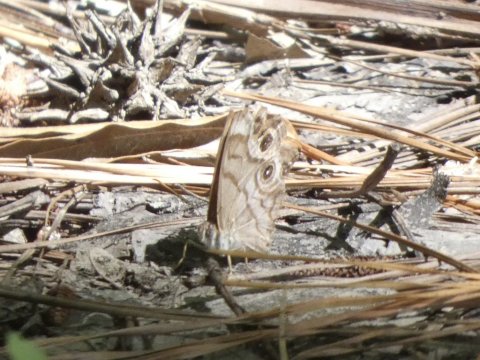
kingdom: Animalia
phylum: Arthropoda
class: Insecta
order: Lepidoptera
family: Nymphalidae
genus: Enodia
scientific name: Enodia portlandia
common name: Southern Pearly Eye
